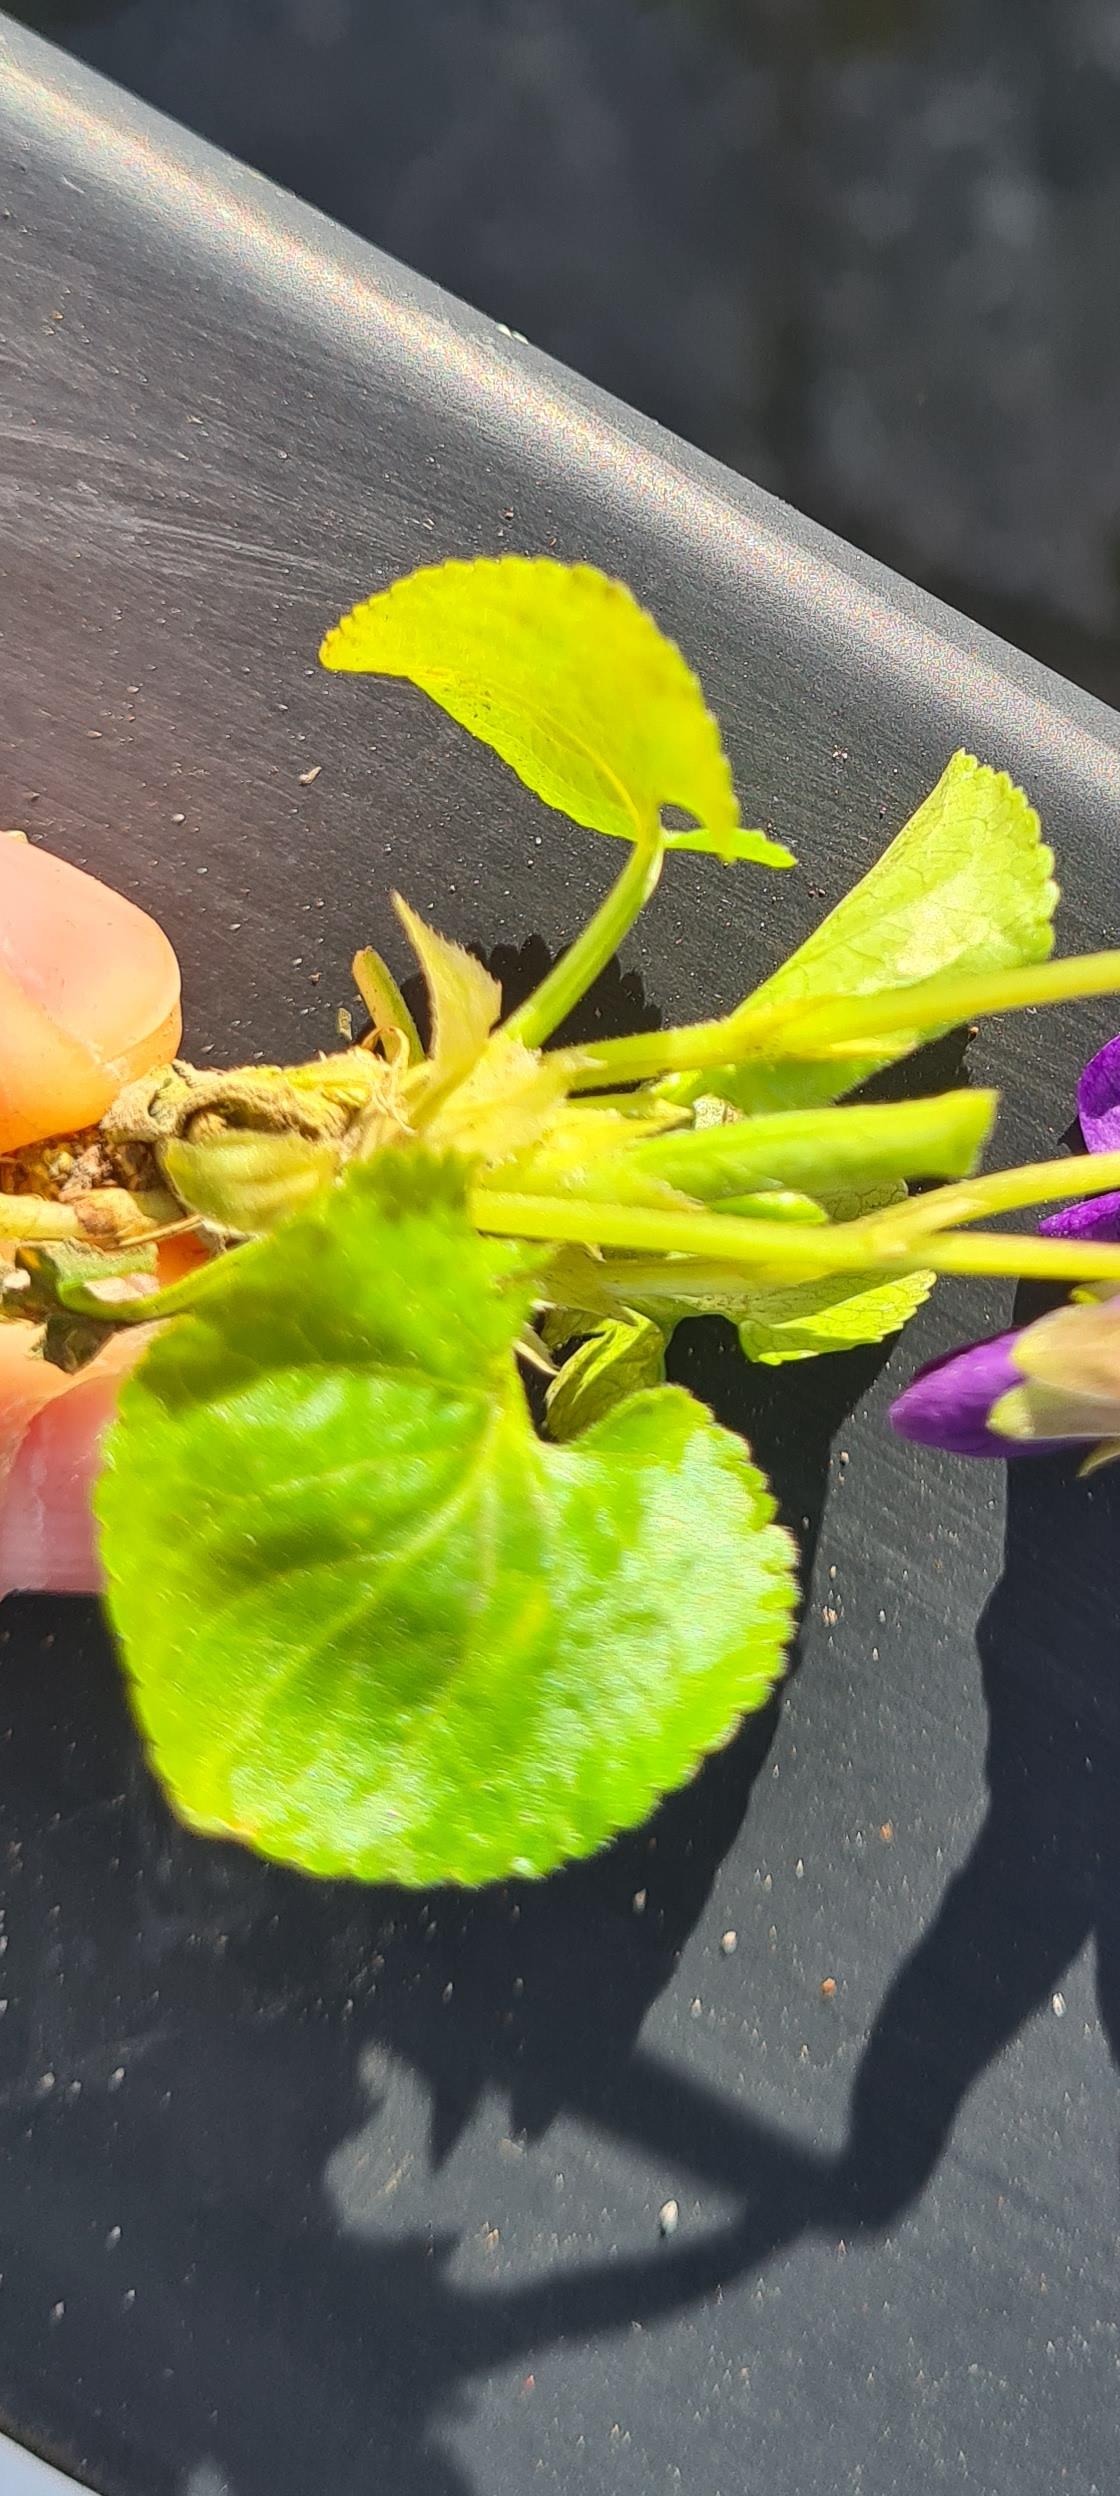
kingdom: Plantae
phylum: Tracheophyta
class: Magnoliopsida
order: Malpighiales
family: Violaceae
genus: Viola
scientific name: Viola odorata
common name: Marts-viol
